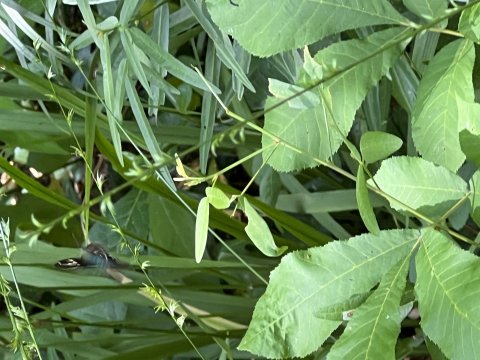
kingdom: Animalia
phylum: Arthropoda
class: Insecta
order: Lepidoptera
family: Hesperiidae
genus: Urbanus
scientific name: Urbanus proteus
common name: Long-tailed Skipper
